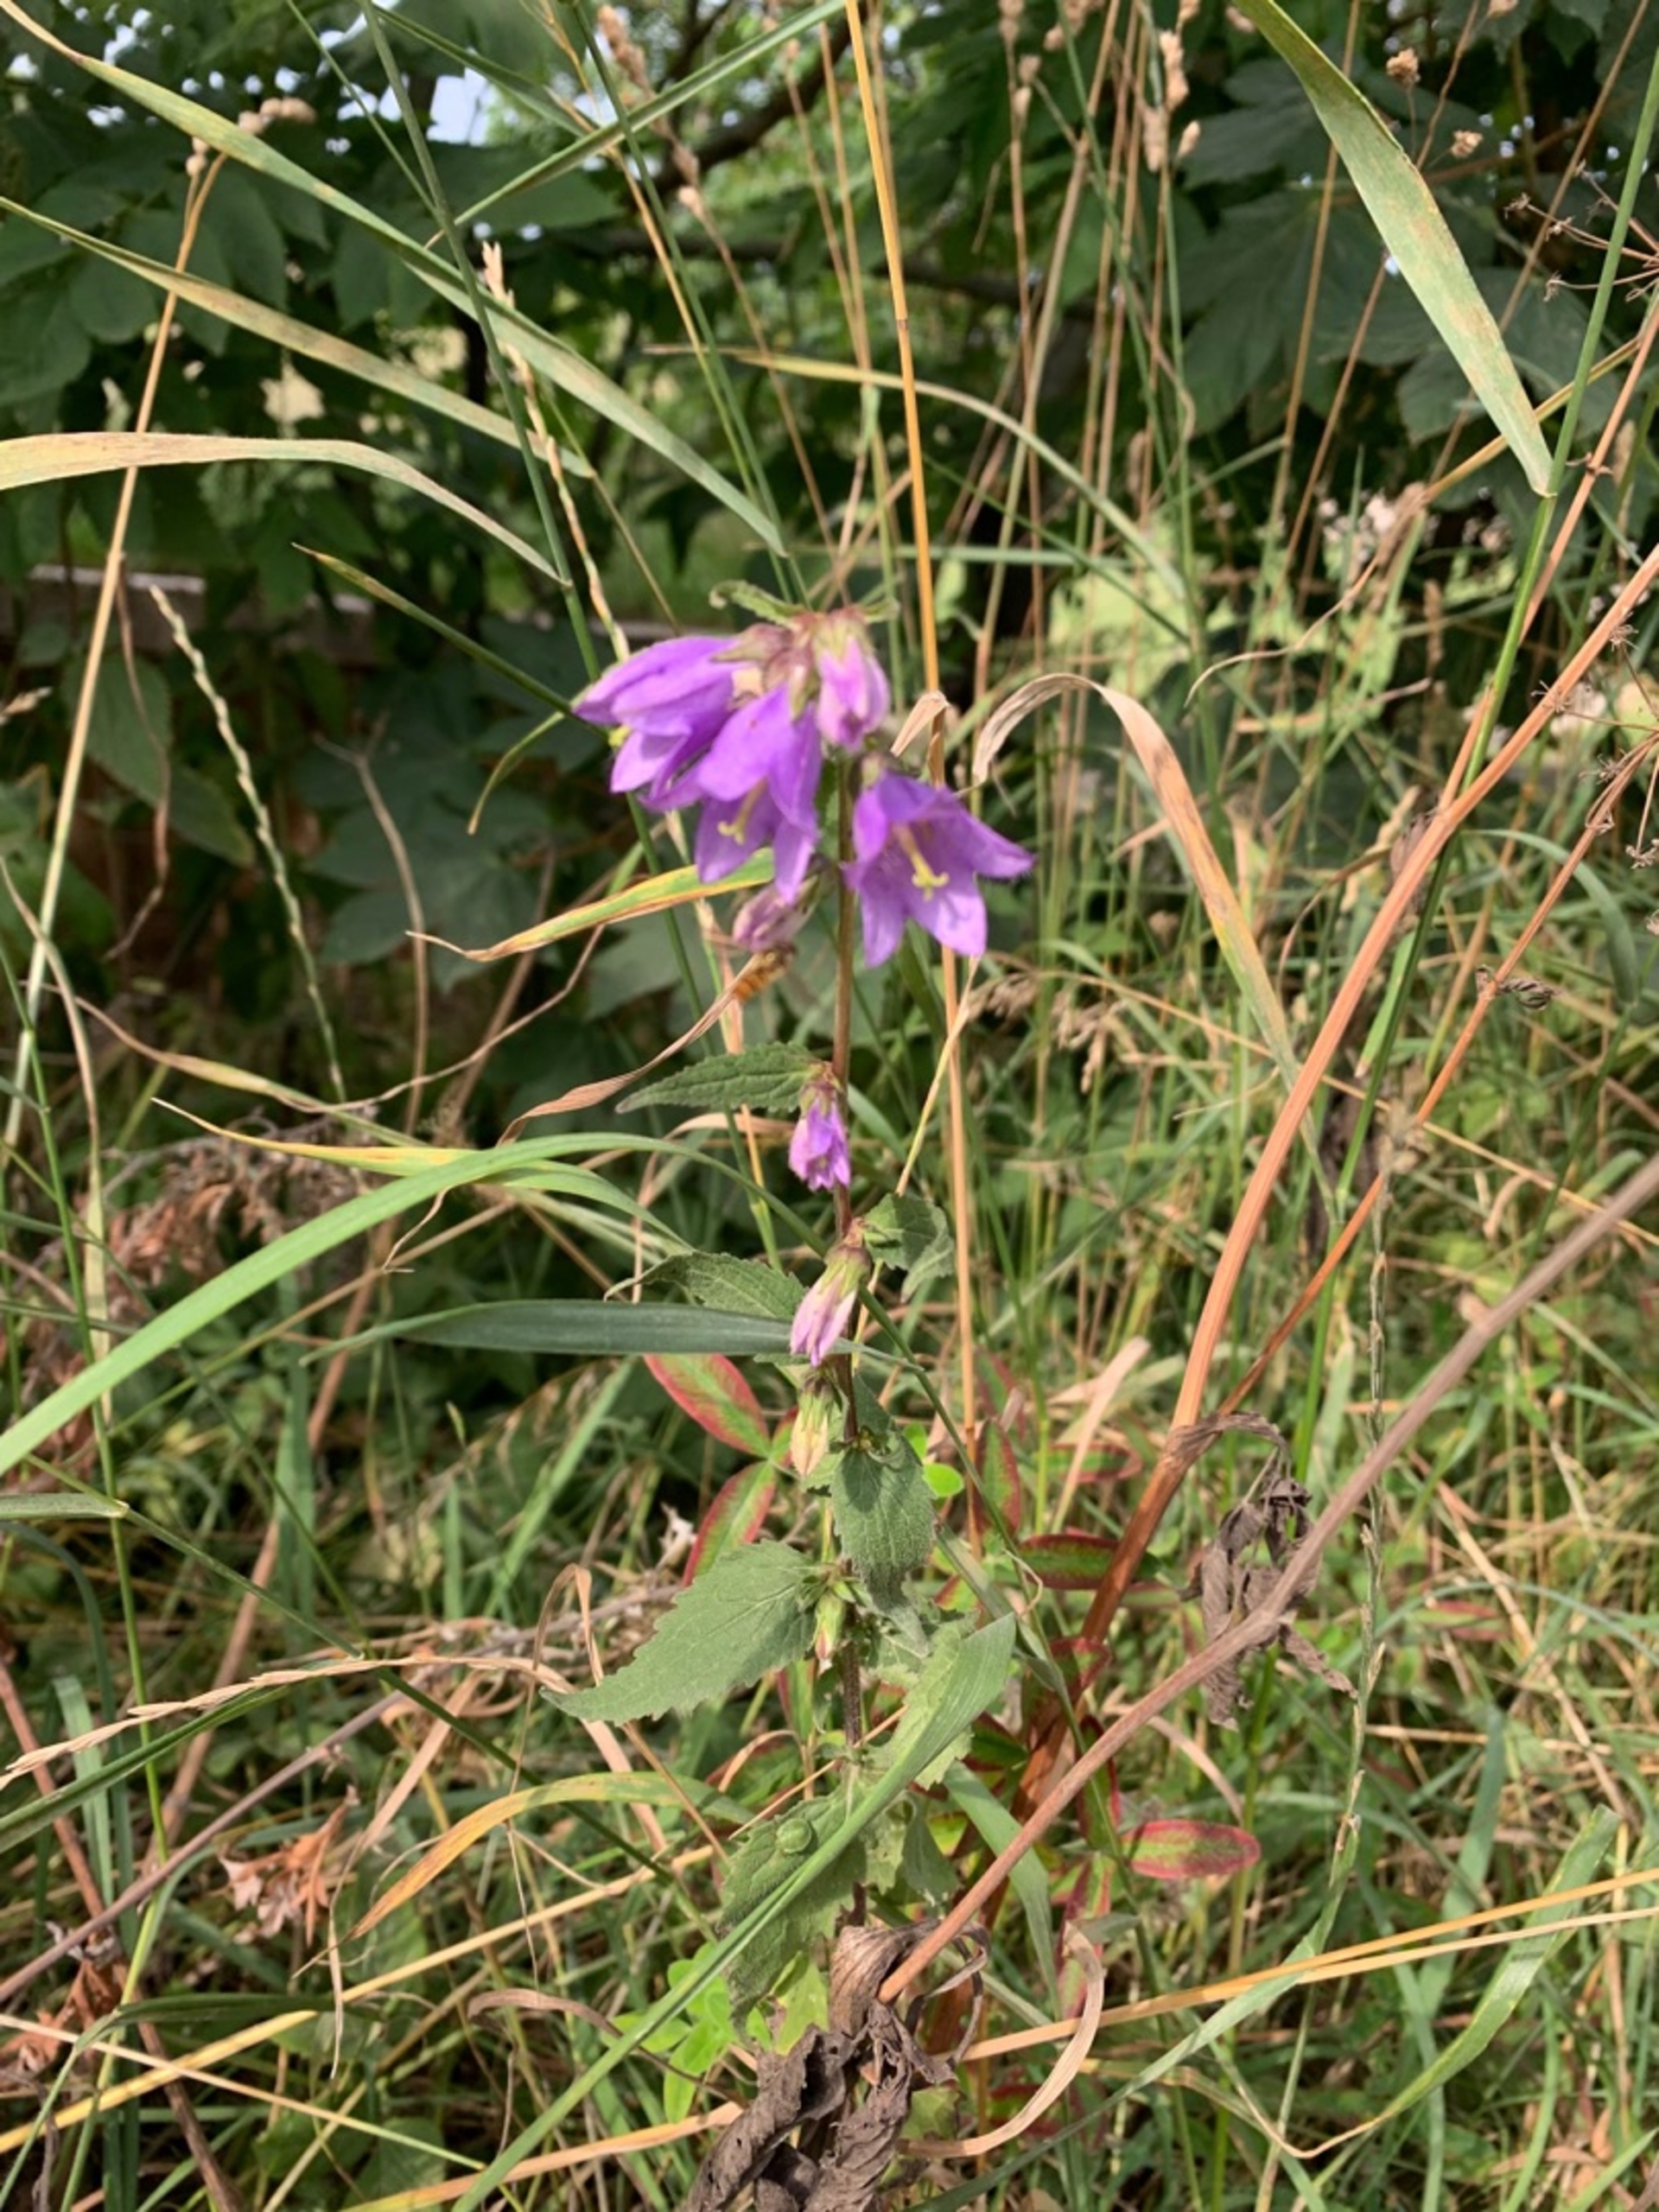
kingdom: Plantae
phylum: Tracheophyta
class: Magnoliopsida
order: Asterales
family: Campanulaceae
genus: Campanula
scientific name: Campanula trachelium
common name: Nælde-klokke
